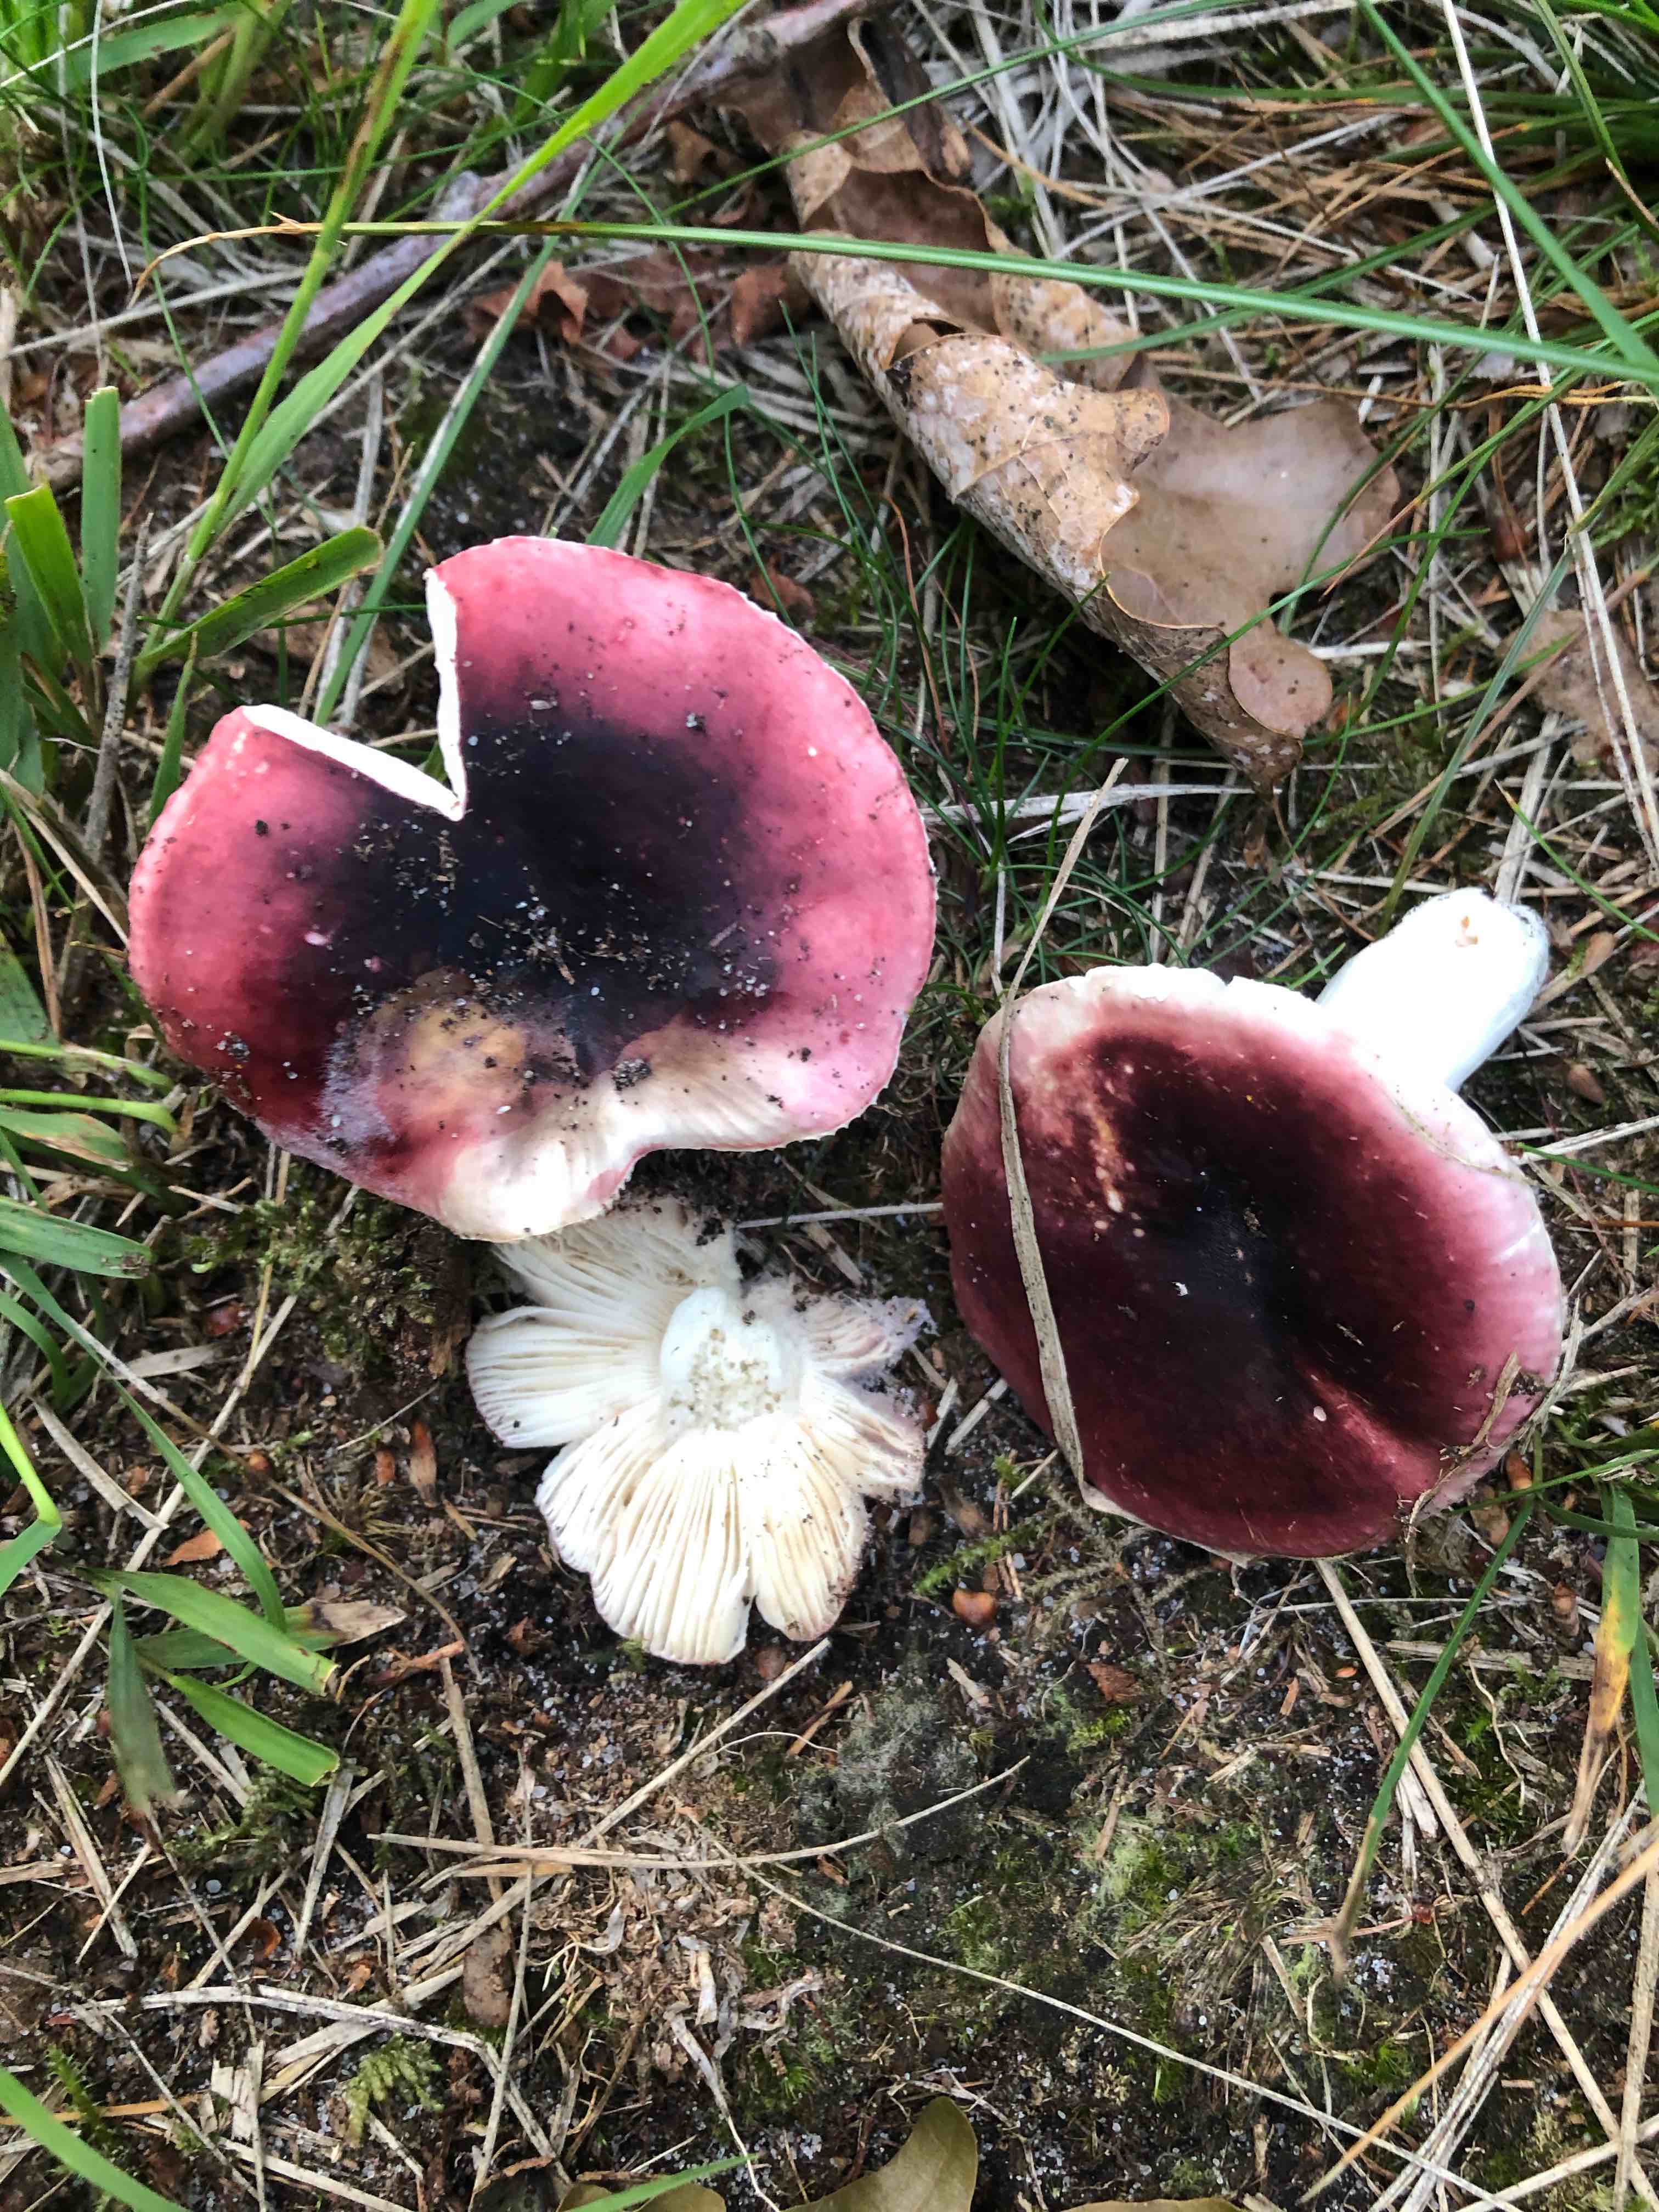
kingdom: Fungi
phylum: Basidiomycota
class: Agaricomycetes
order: Russulales
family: Russulaceae
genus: Russula
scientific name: Russula atropurpurea
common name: purpurbroget skørhat
